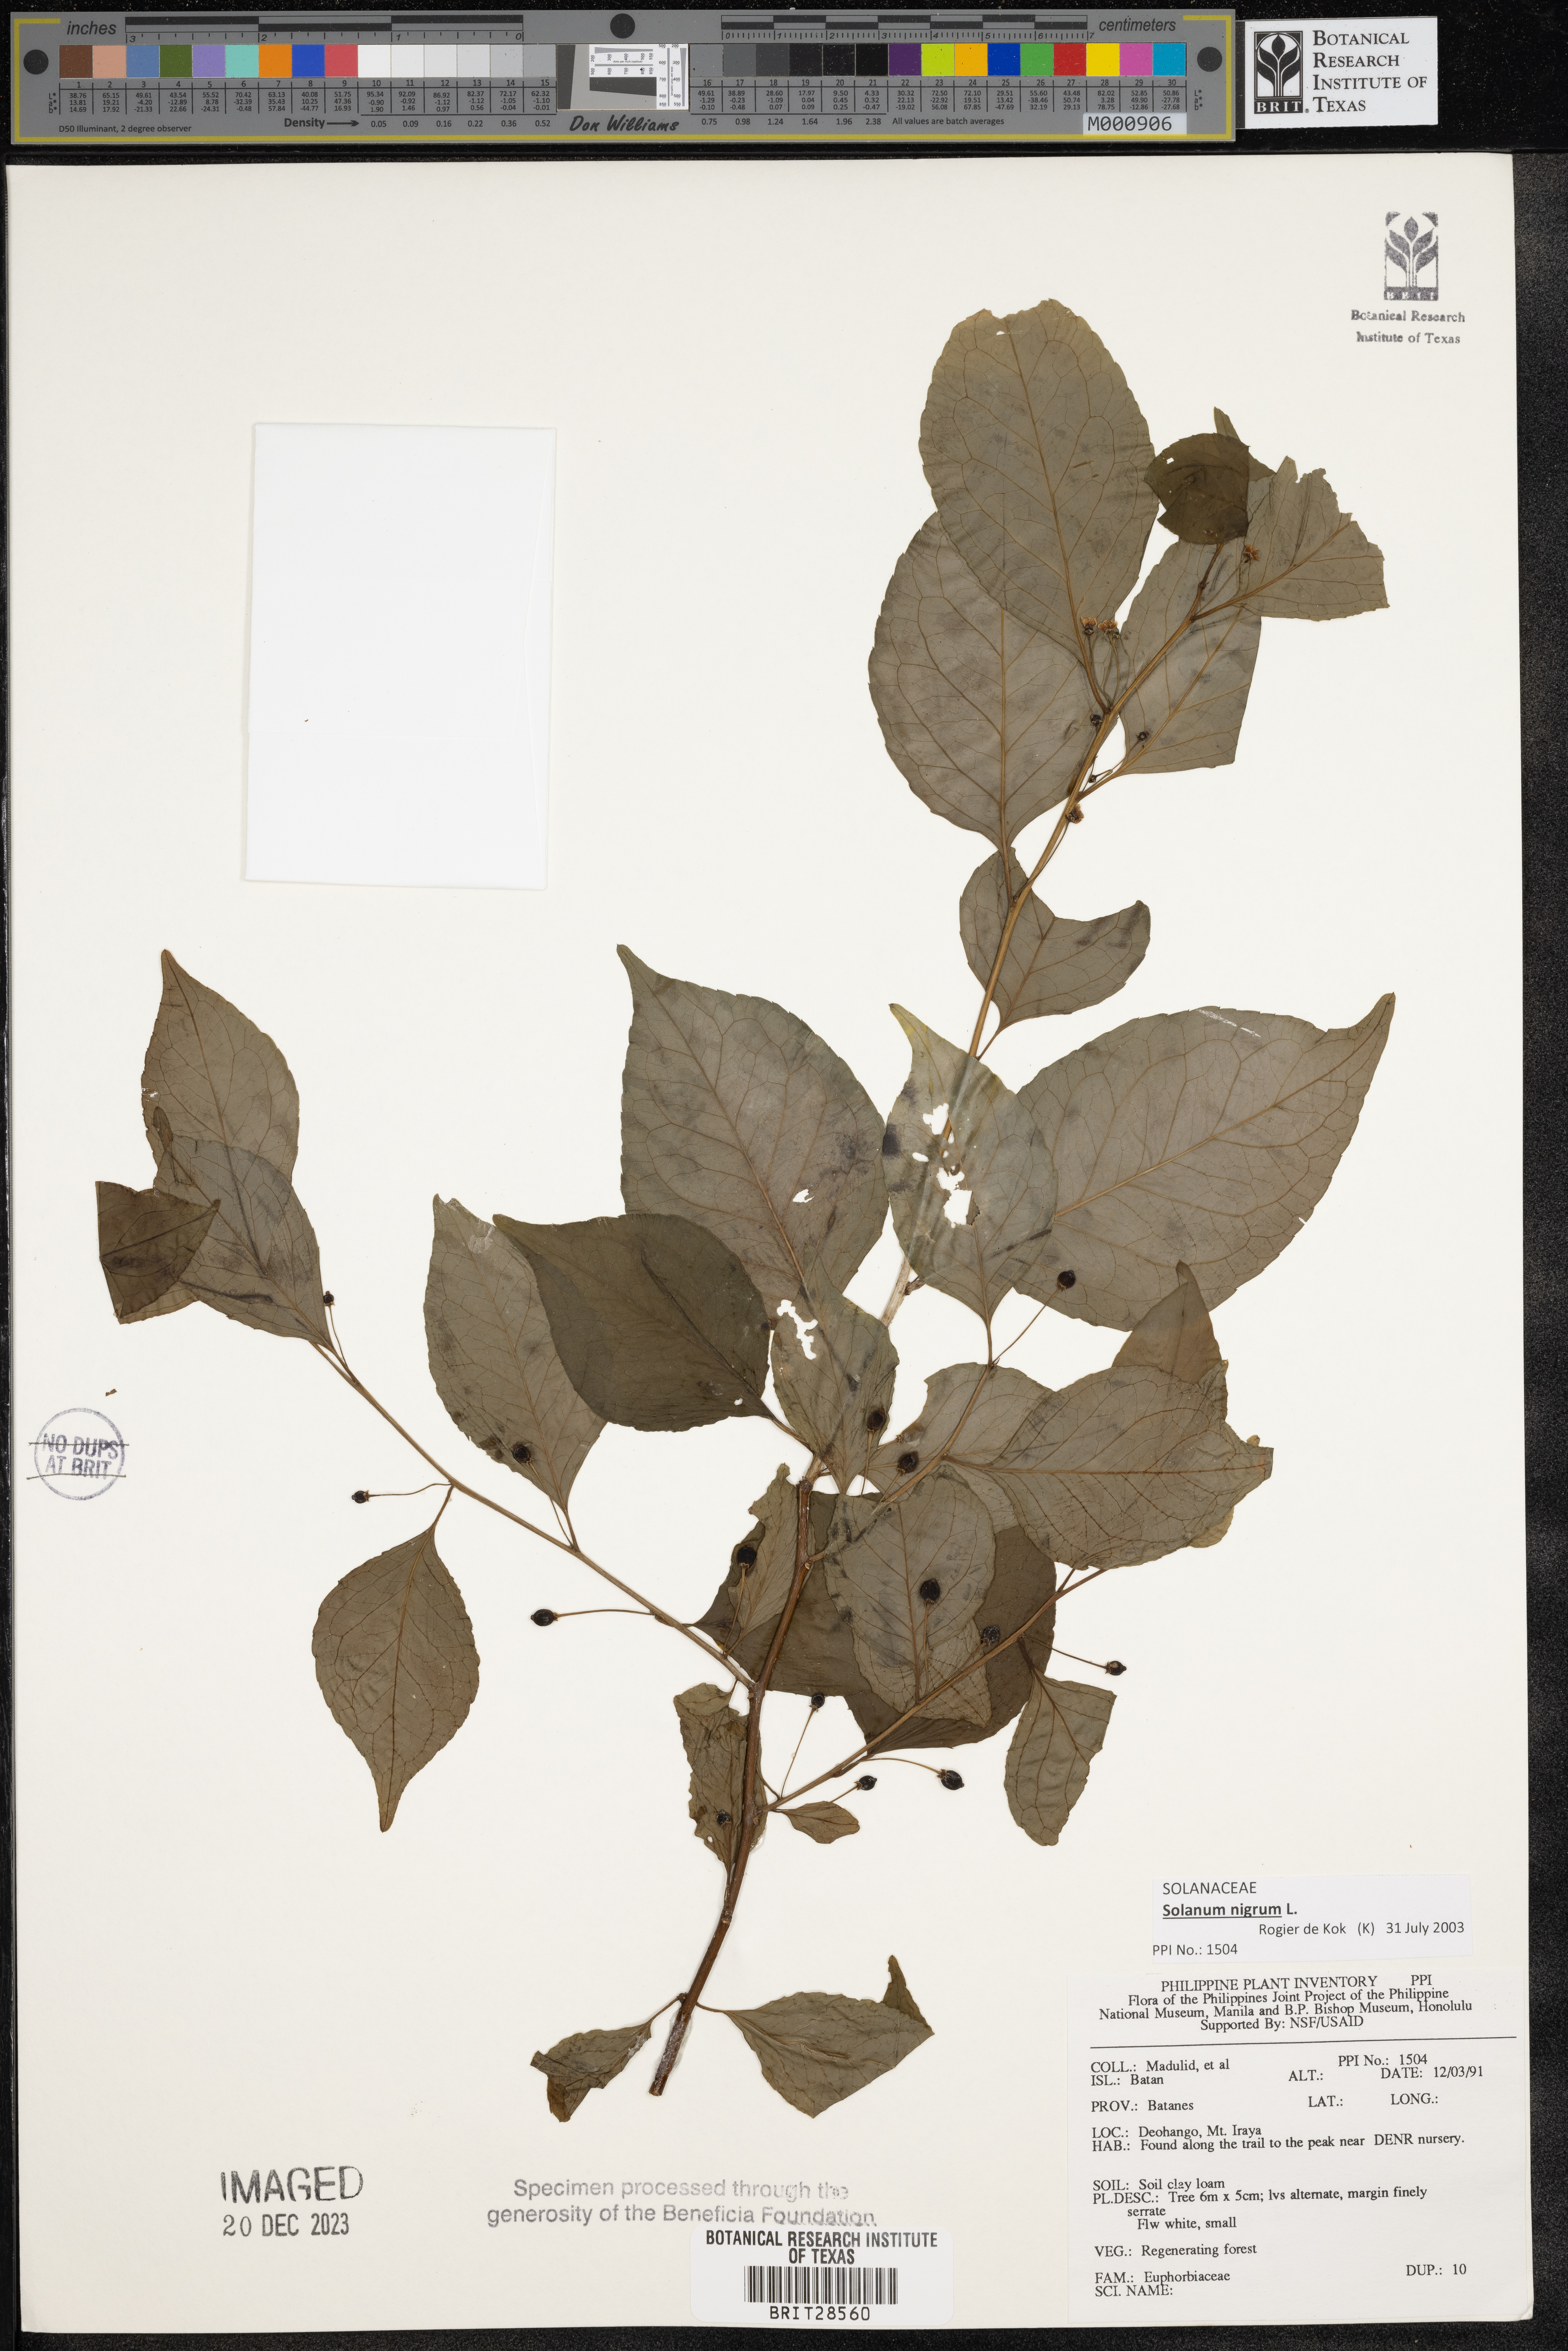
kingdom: Plantae
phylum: Tracheophyta
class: Magnoliopsida
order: Malpighiales
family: Euphorbiaceae
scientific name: Euphorbiaceae
